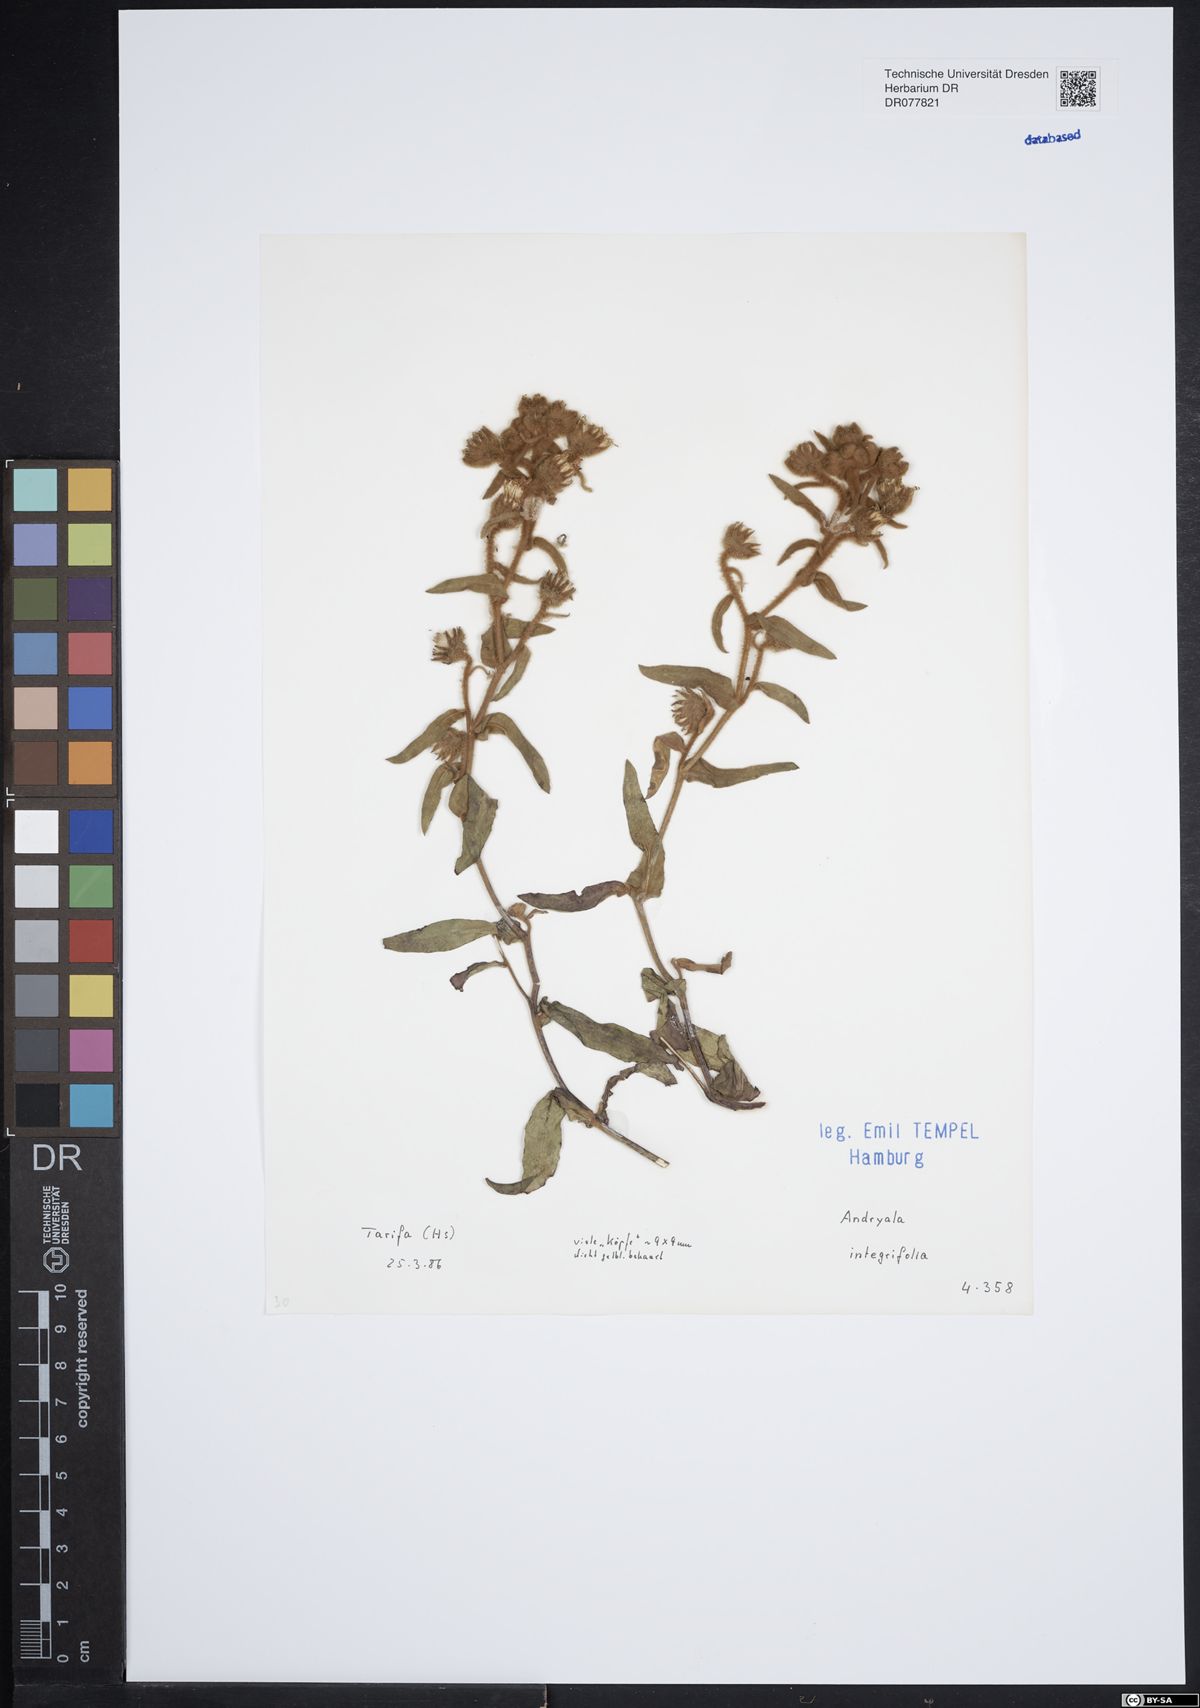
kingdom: Plantae
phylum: Tracheophyta
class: Magnoliopsida
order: Asterales
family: Asteraceae
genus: Andryala
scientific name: Andryala integrifolia
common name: Common andryala
